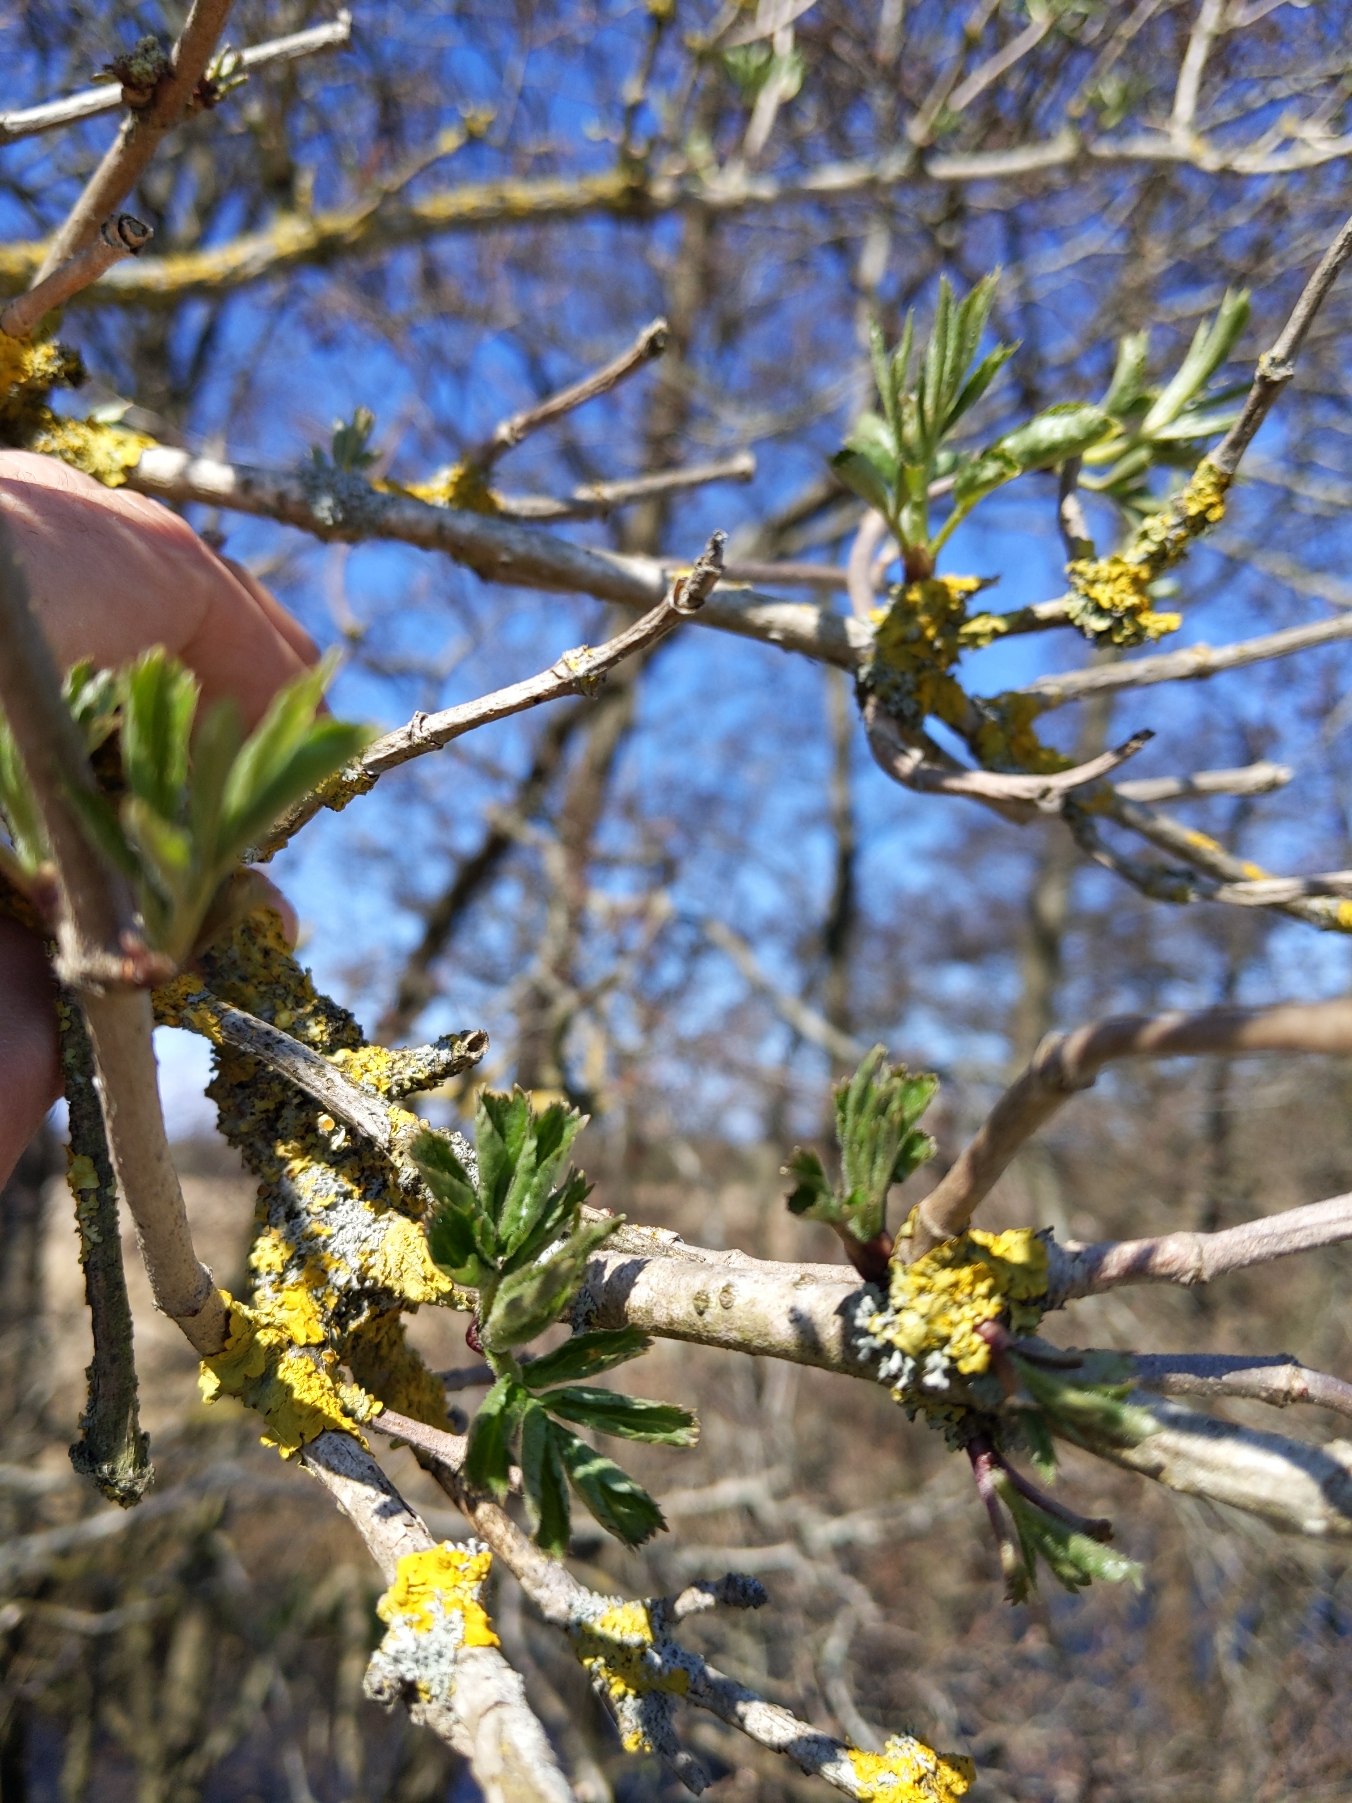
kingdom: Plantae
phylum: Tracheophyta
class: Magnoliopsida
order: Dipsacales
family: Viburnaceae
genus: Sambucus
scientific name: Sambucus nigra
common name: Almindelig hyld
